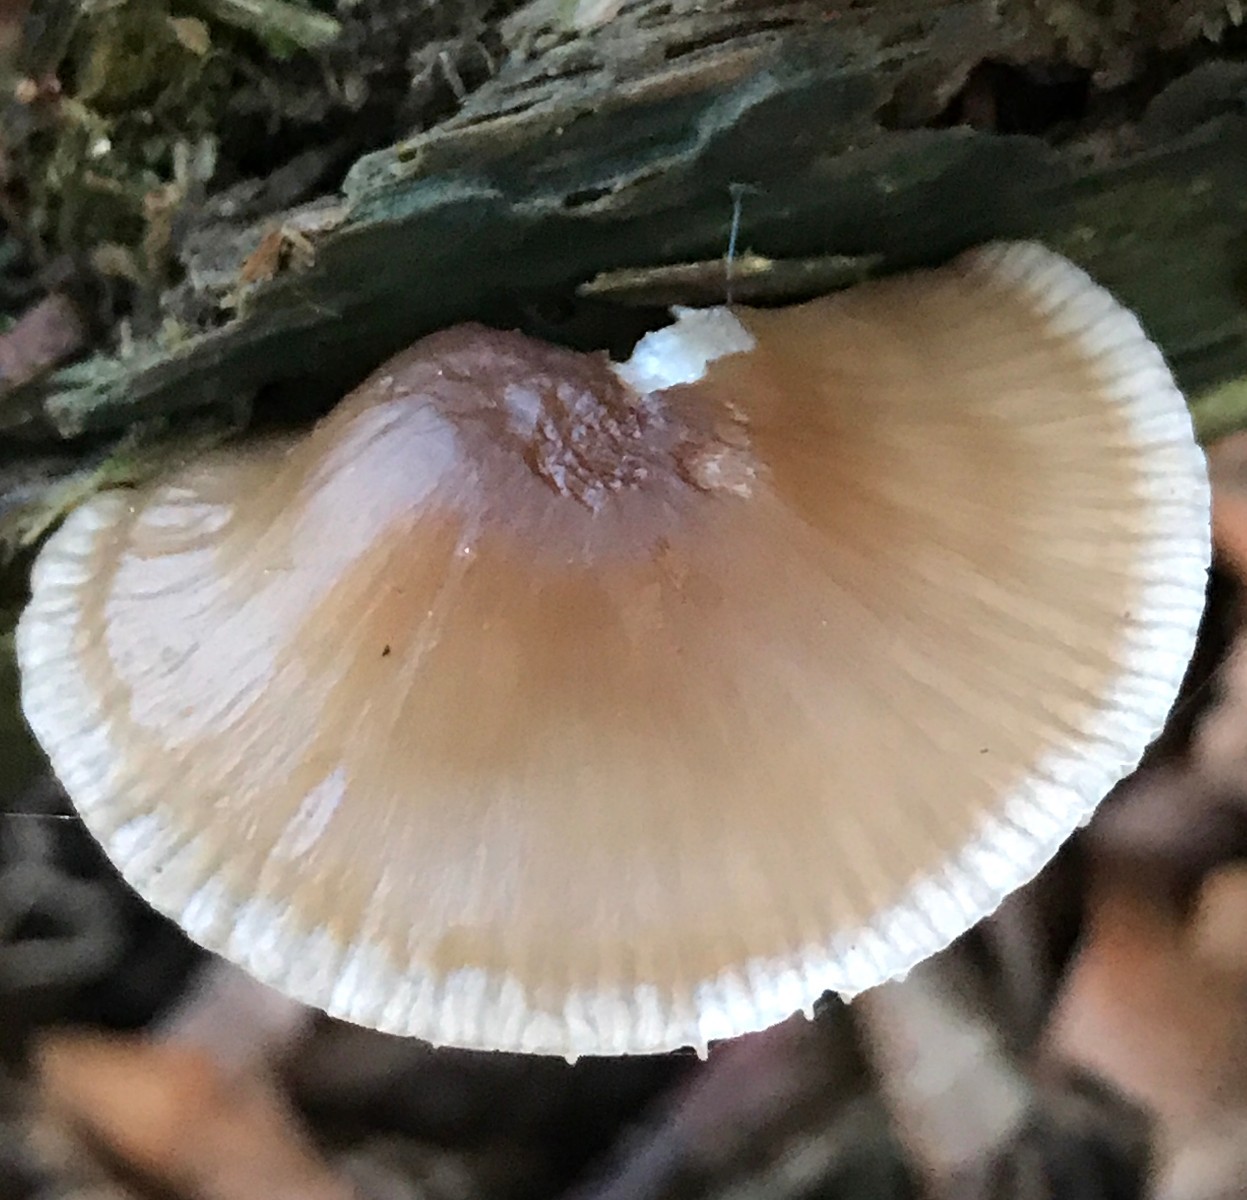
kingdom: Fungi
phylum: Basidiomycota
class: Agaricomycetes
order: Agaricales
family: Mycenaceae
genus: Mycena
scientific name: Mycena galericulata
